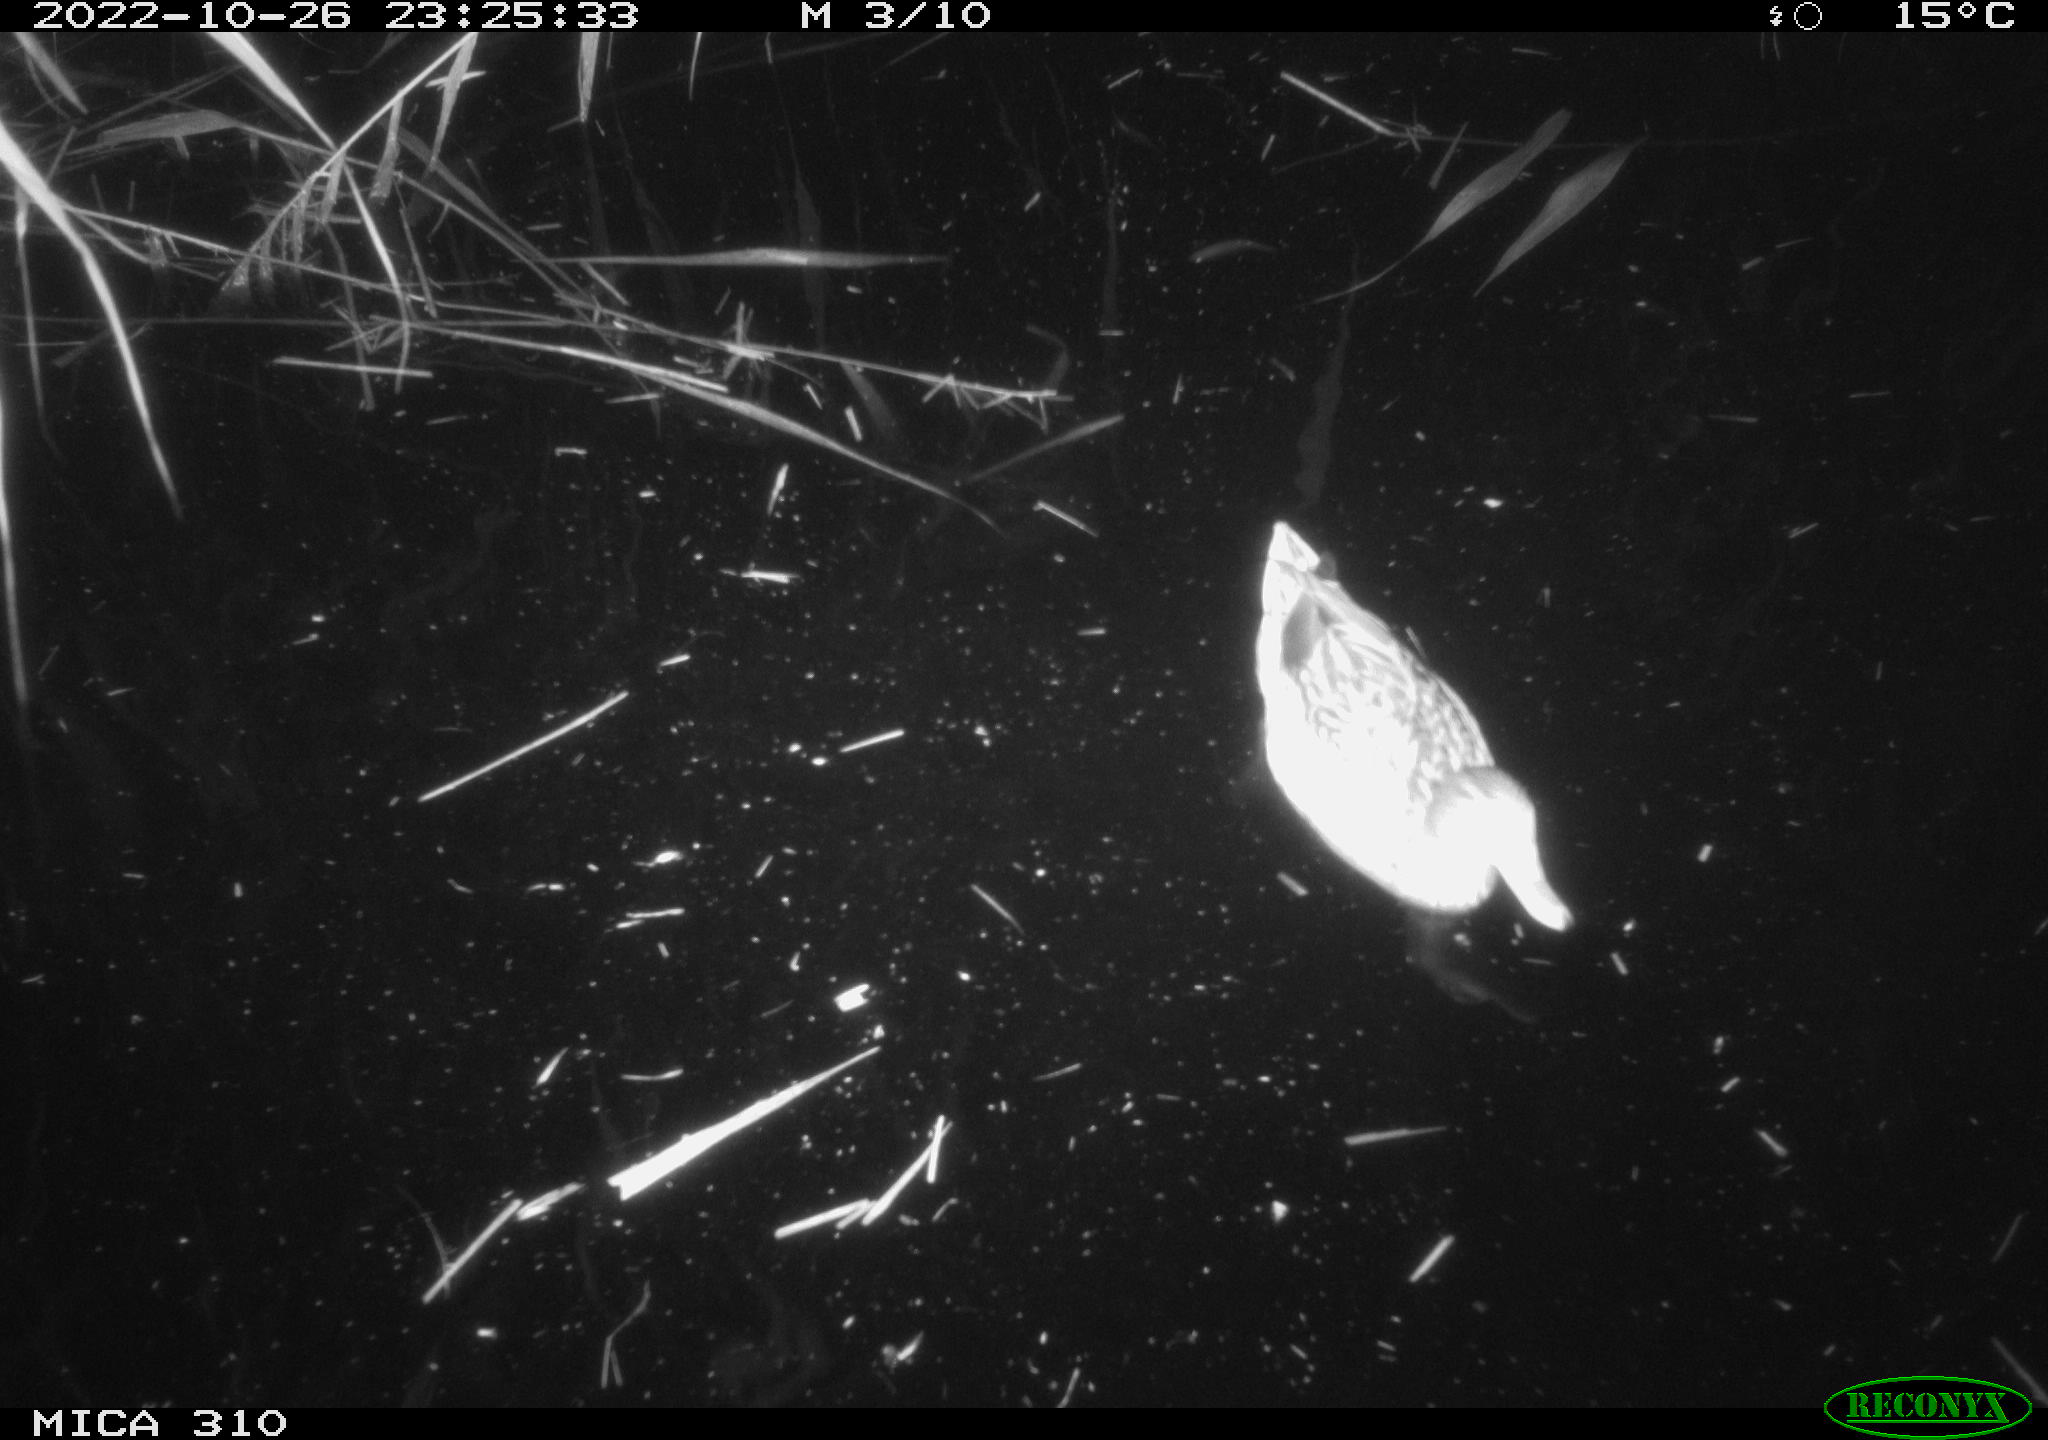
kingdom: Animalia
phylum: Chordata
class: Aves
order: Anseriformes
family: Anatidae
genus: Anas
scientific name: Anas
